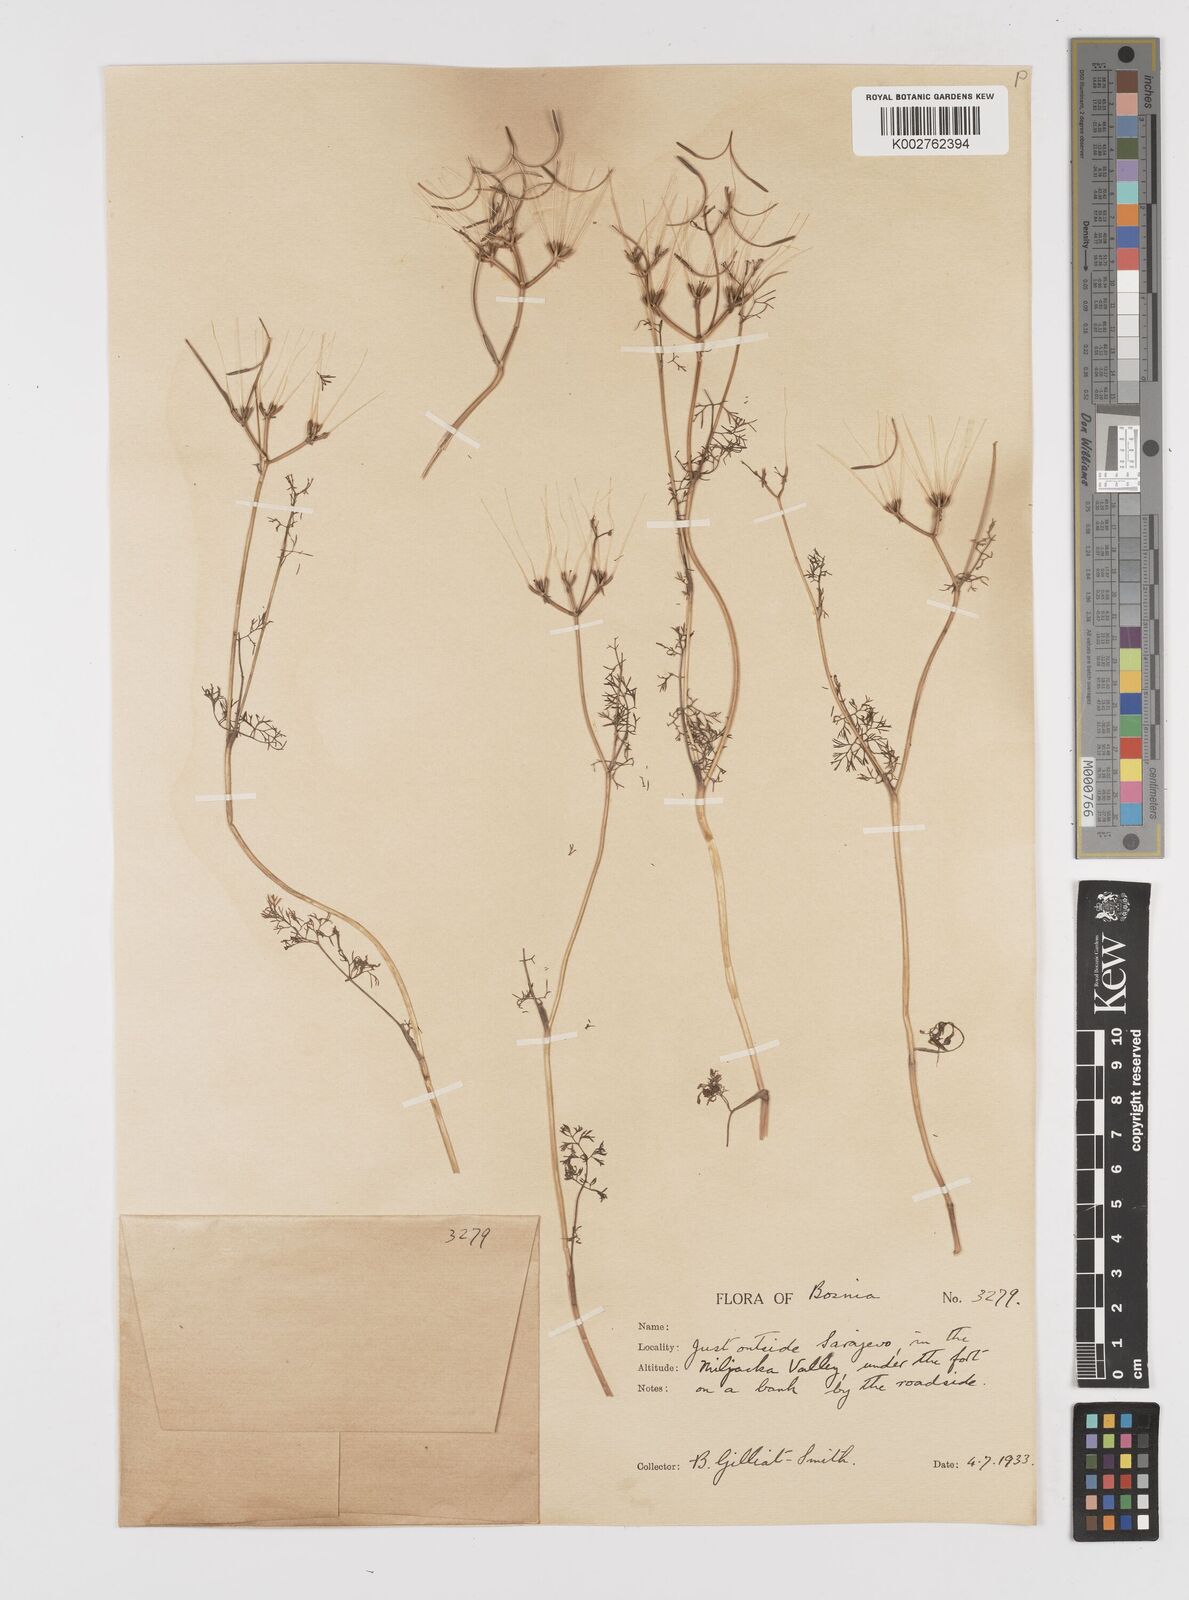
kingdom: Plantae
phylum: Tracheophyta
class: Magnoliopsida
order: Apiales
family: Apiaceae
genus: Scandix
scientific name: Scandix pecten-veneris
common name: Shepherd's-needle
